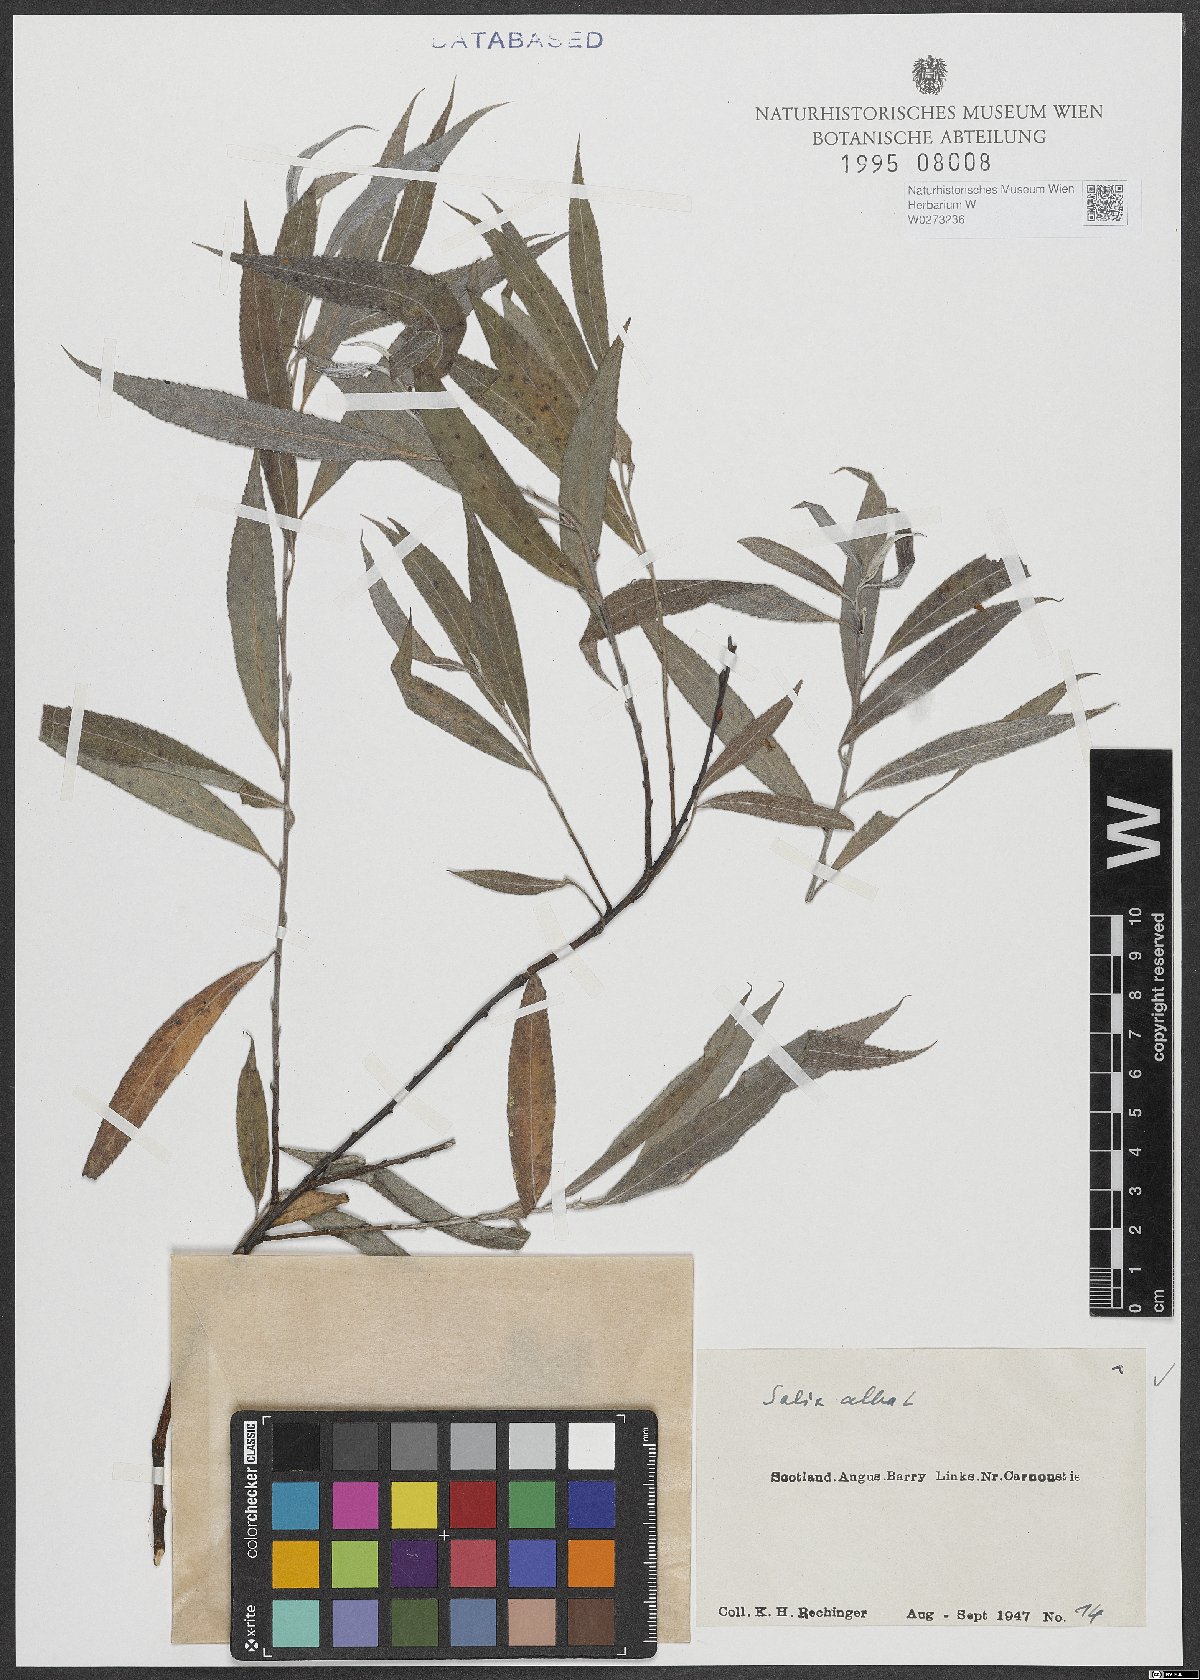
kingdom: Plantae
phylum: Tracheophyta
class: Magnoliopsida
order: Malpighiales
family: Salicaceae
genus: Salix
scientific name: Salix alba
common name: White willow
